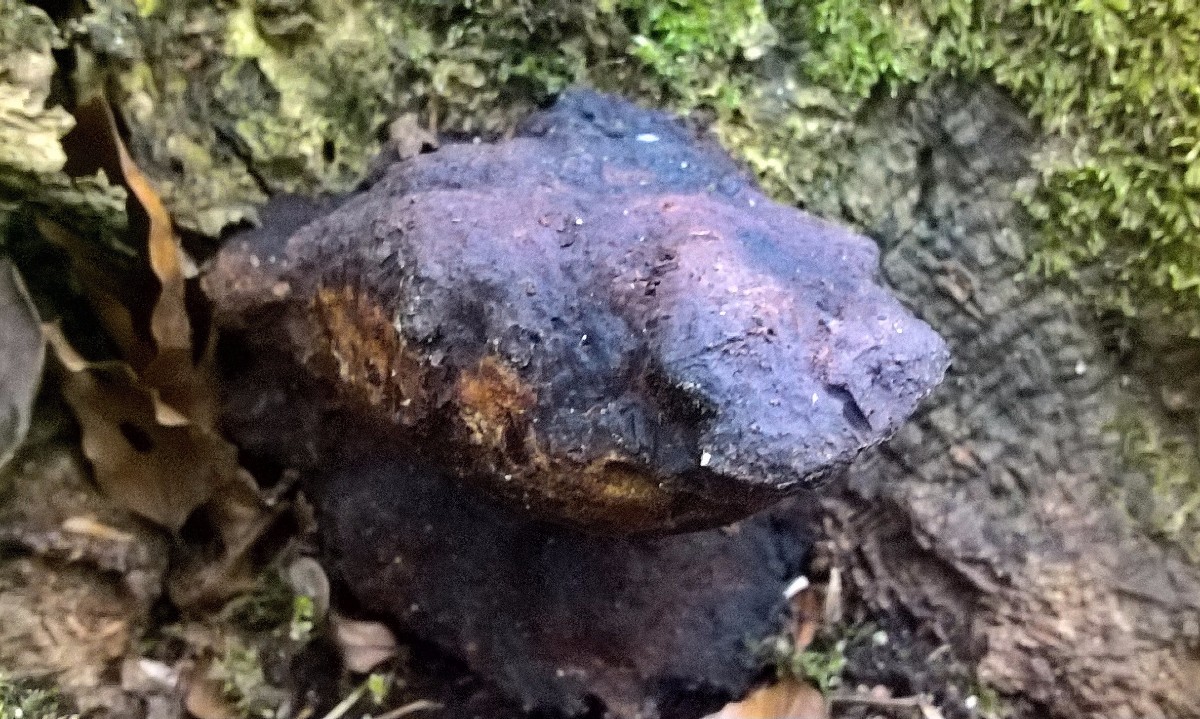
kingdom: Fungi
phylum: Basidiomycota
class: Agaricomycetes
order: Hymenochaetales
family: Hymenochaetaceae
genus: Pseudoinonotus
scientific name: Pseudoinonotus dryadeus
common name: ege-spejlporesvamp
